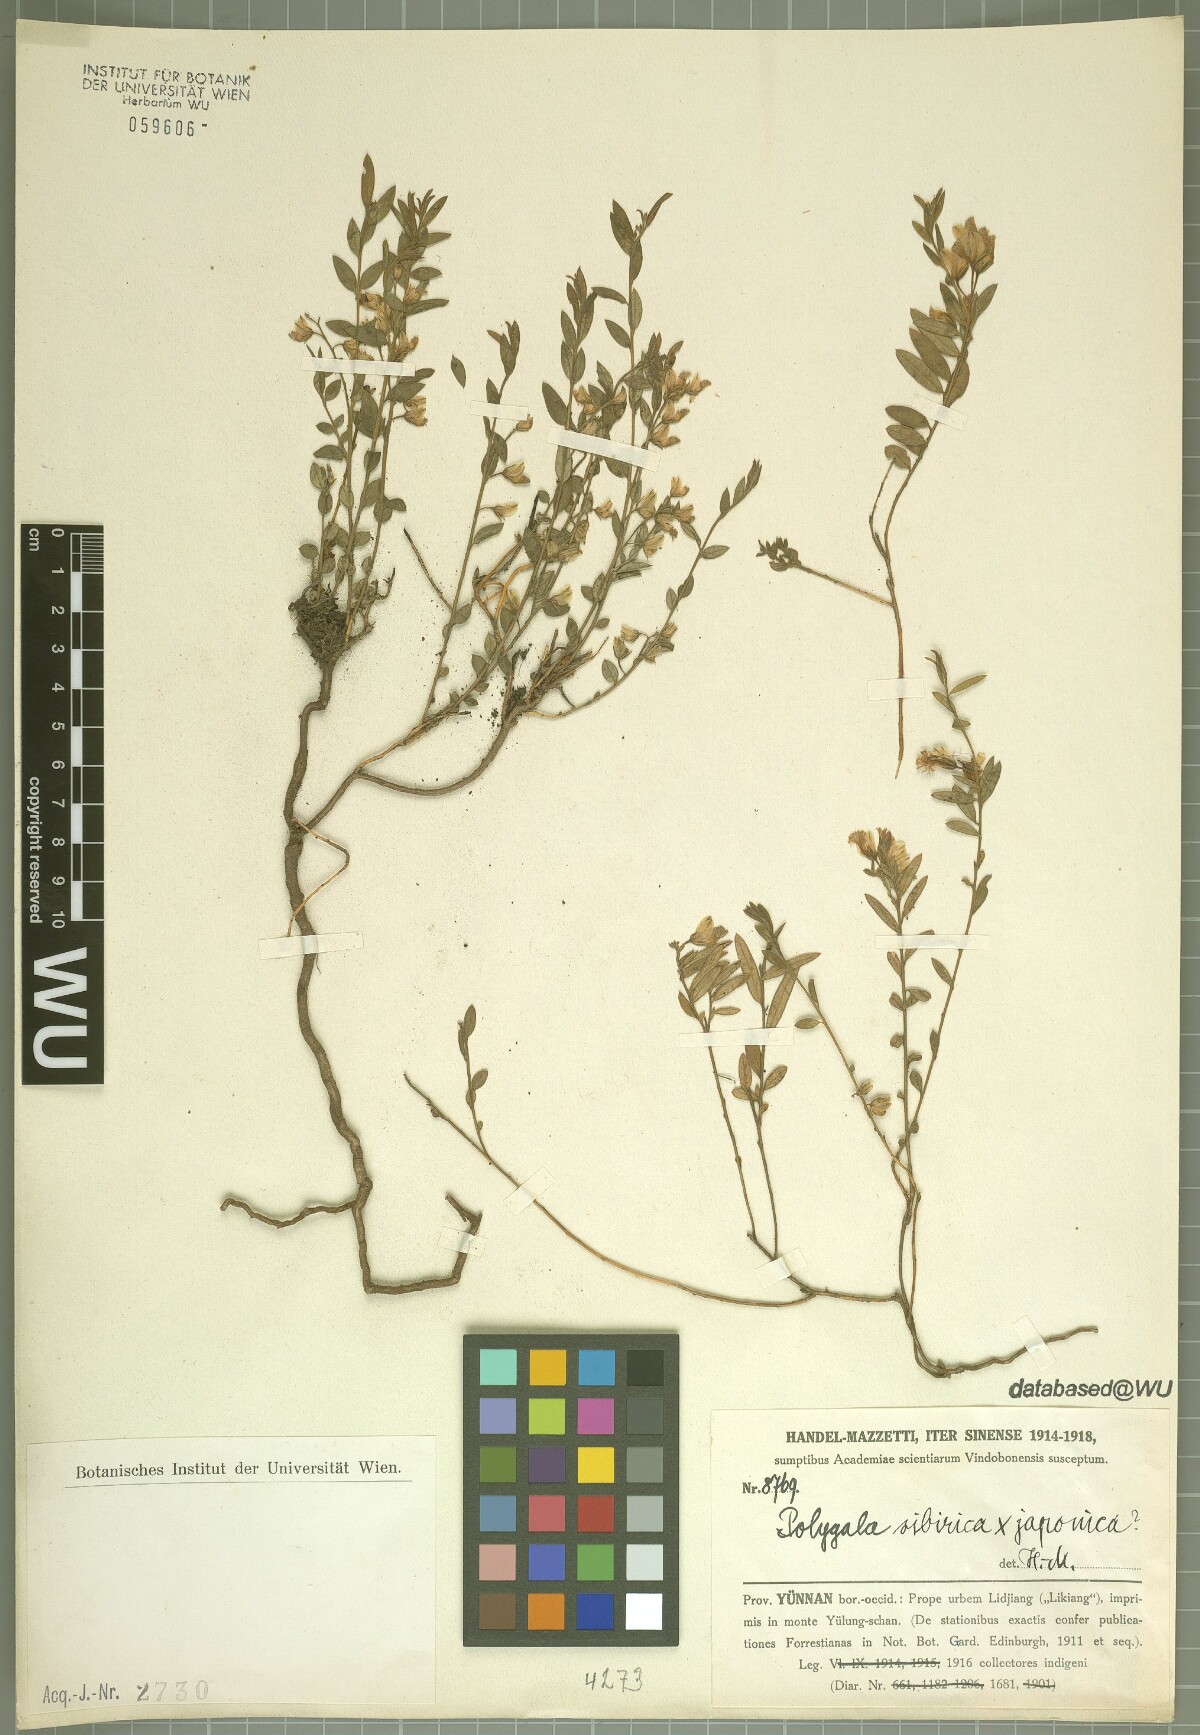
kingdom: Plantae
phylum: Tracheophyta
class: Magnoliopsida
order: Fabales
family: Polygalaceae
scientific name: Polygalaceae
